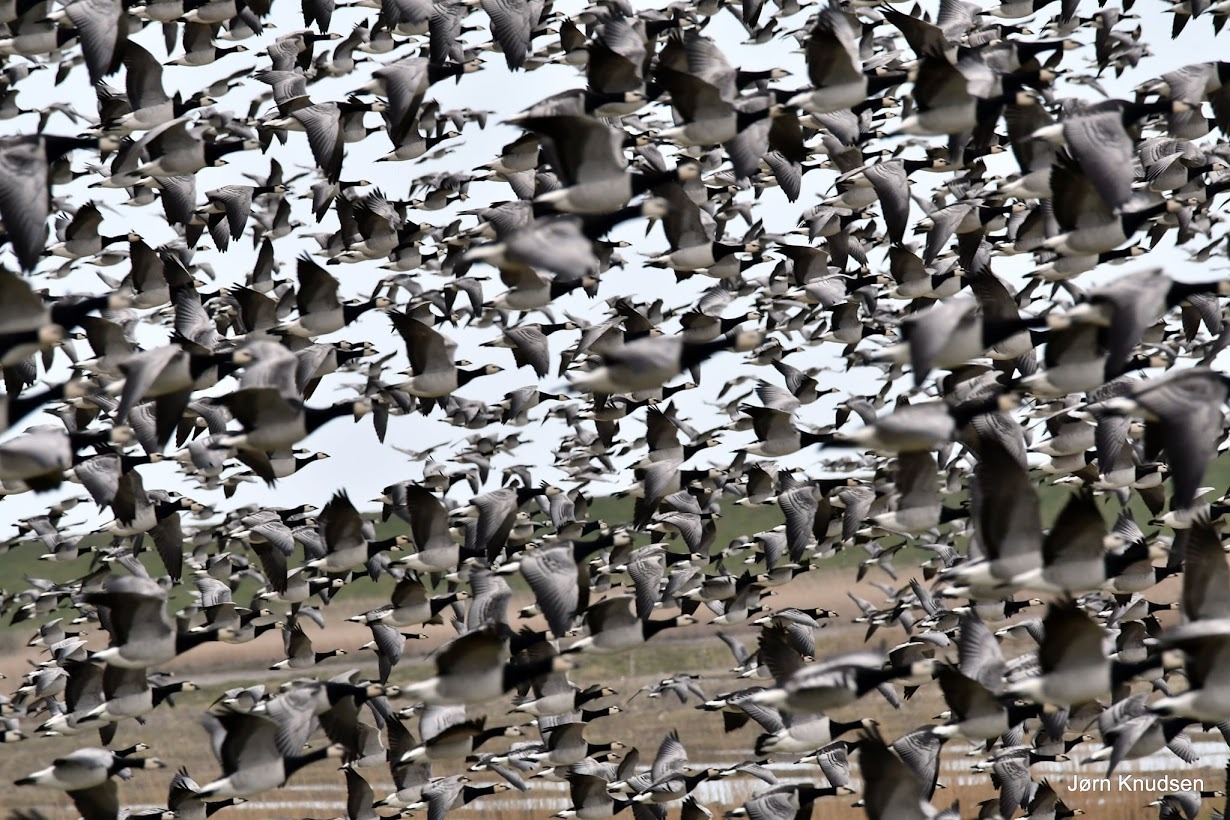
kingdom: Animalia
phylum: Chordata
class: Aves
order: Anseriformes
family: Anatidae
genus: Branta
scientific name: Branta leucopsis
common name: Bramgås
